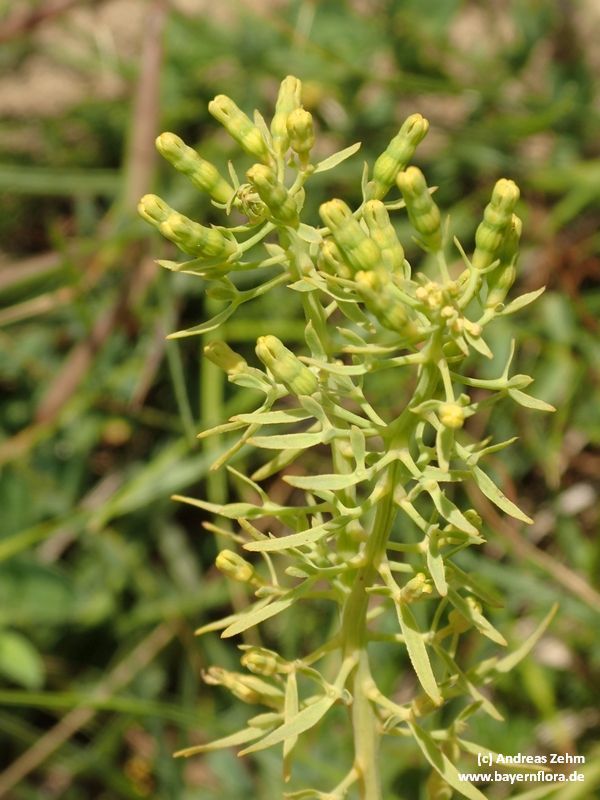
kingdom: Plantae
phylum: Tracheophyta
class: Magnoliopsida
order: Santalales
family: Thesiaceae
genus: Thesium
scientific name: Thesium pyrenaicum
